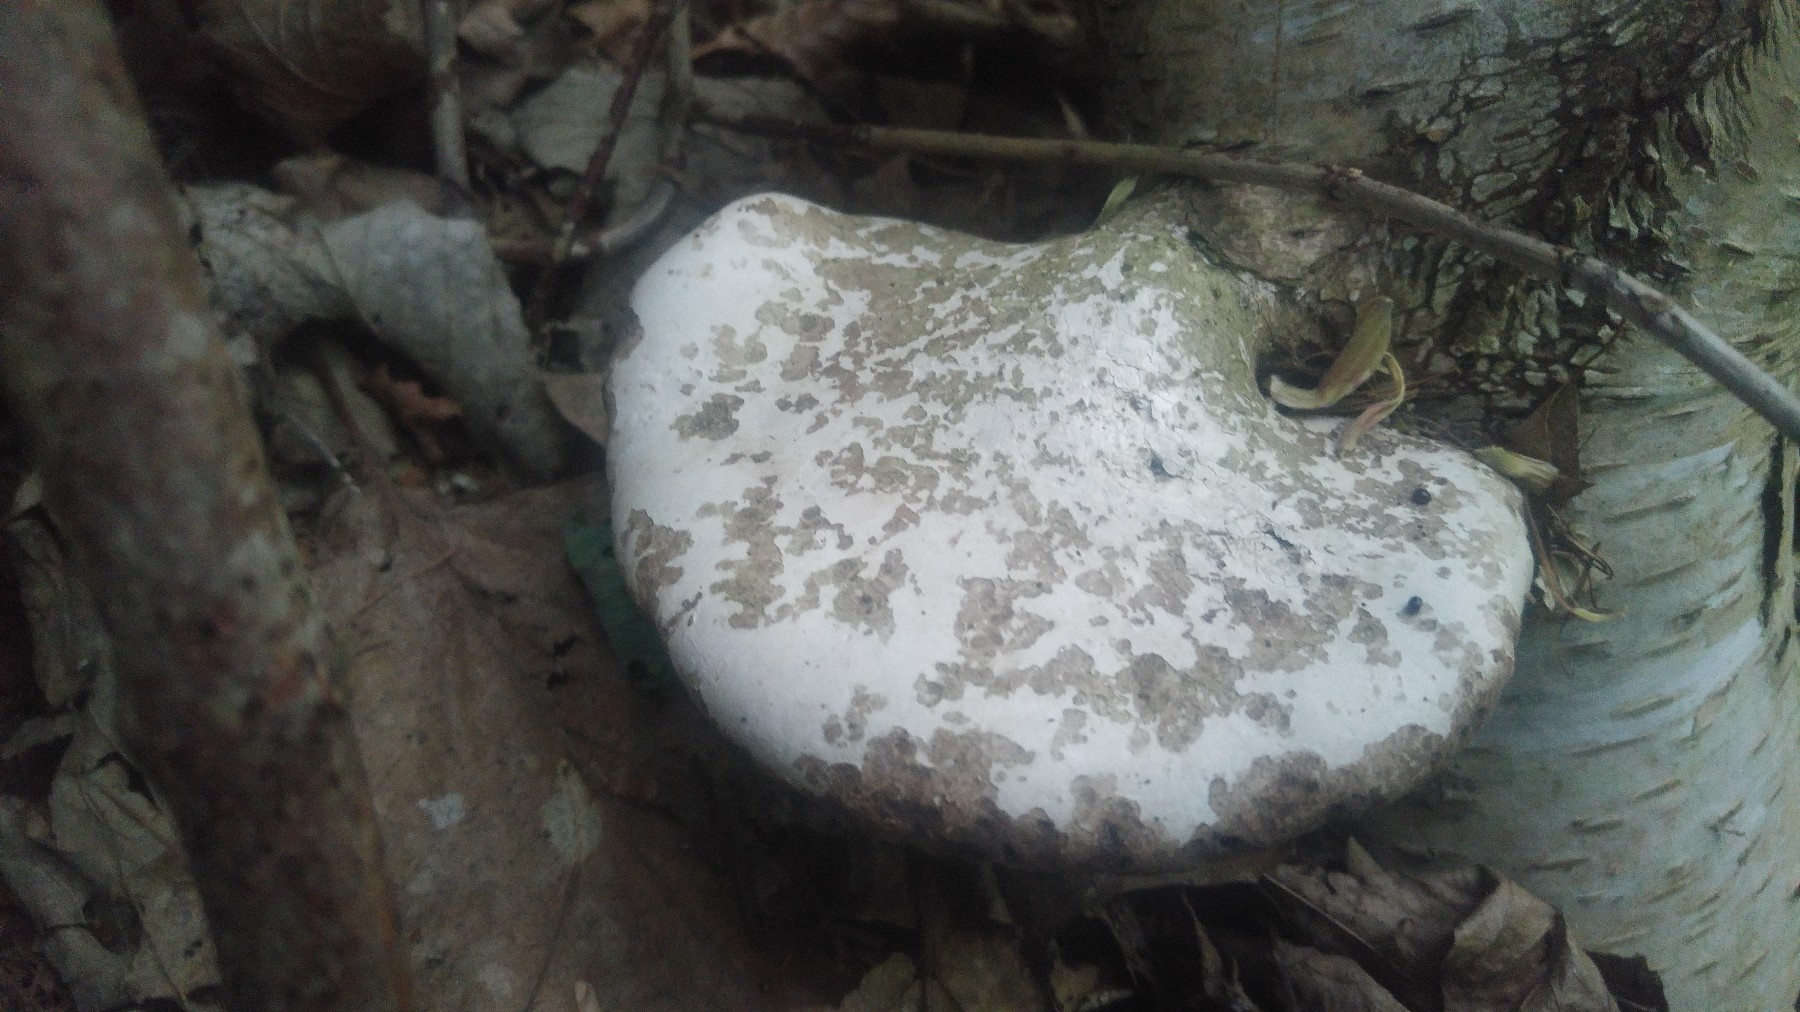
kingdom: Fungi
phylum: Basidiomycota
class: Agaricomycetes
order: Polyporales
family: Fomitopsidaceae
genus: Fomitopsis
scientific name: Fomitopsis betulina
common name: birkeporesvamp
